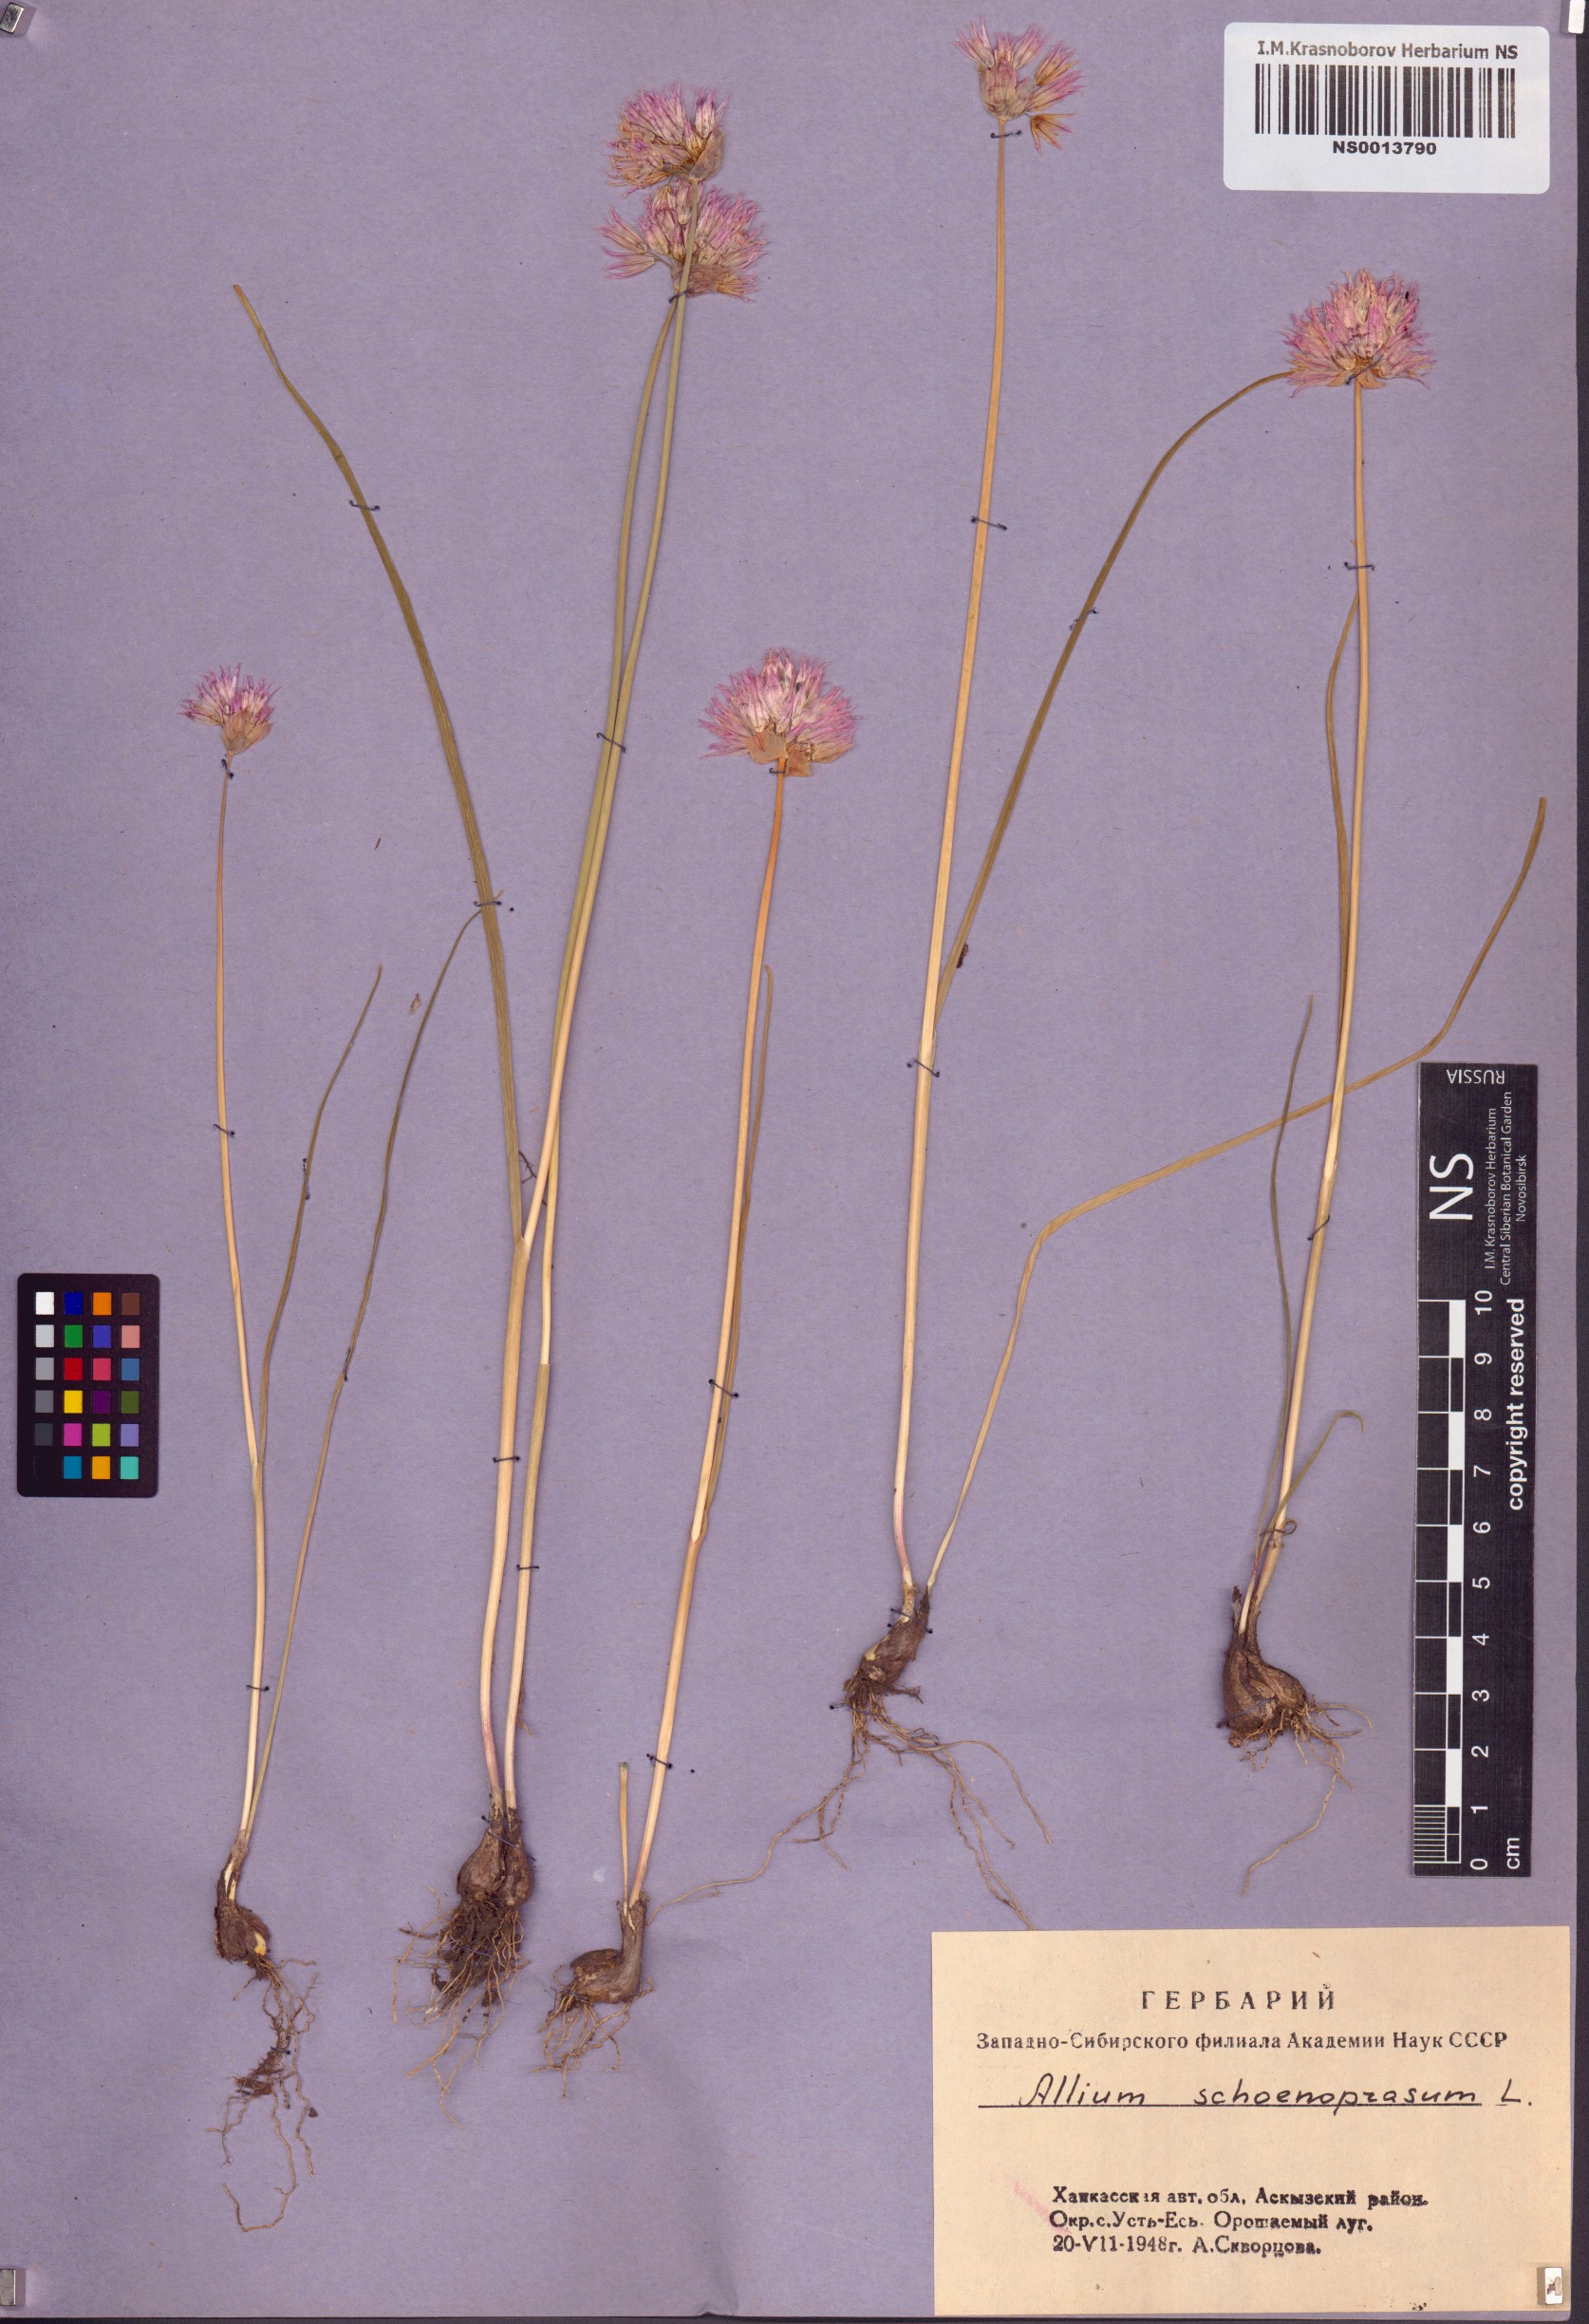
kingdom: Plantae
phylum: Tracheophyta
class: Liliopsida
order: Asparagales
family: Amaryllidaceae
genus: Allium
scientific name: Allium schoenoprasum
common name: Chives
